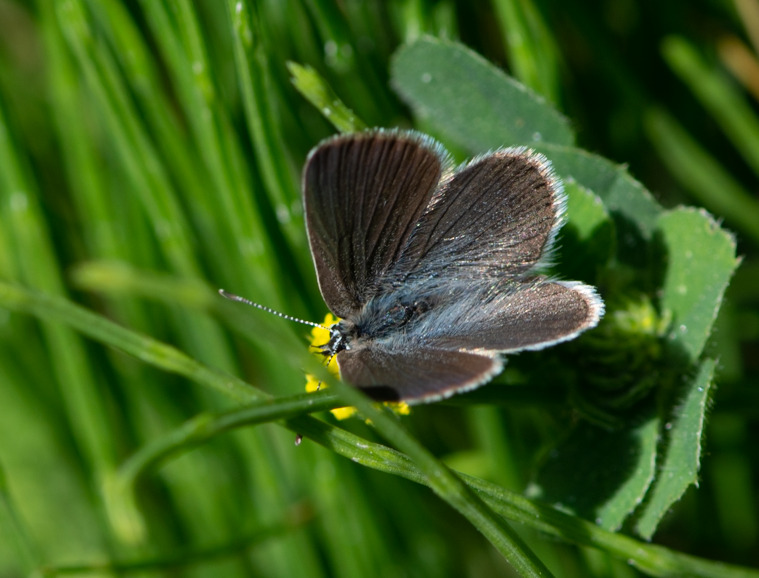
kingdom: Animalia
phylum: Arthropoda
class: Insecta
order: Lepidoptera
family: Lycaenidae
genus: Cupido
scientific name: Cupido minimus
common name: Dværgblåfugl
